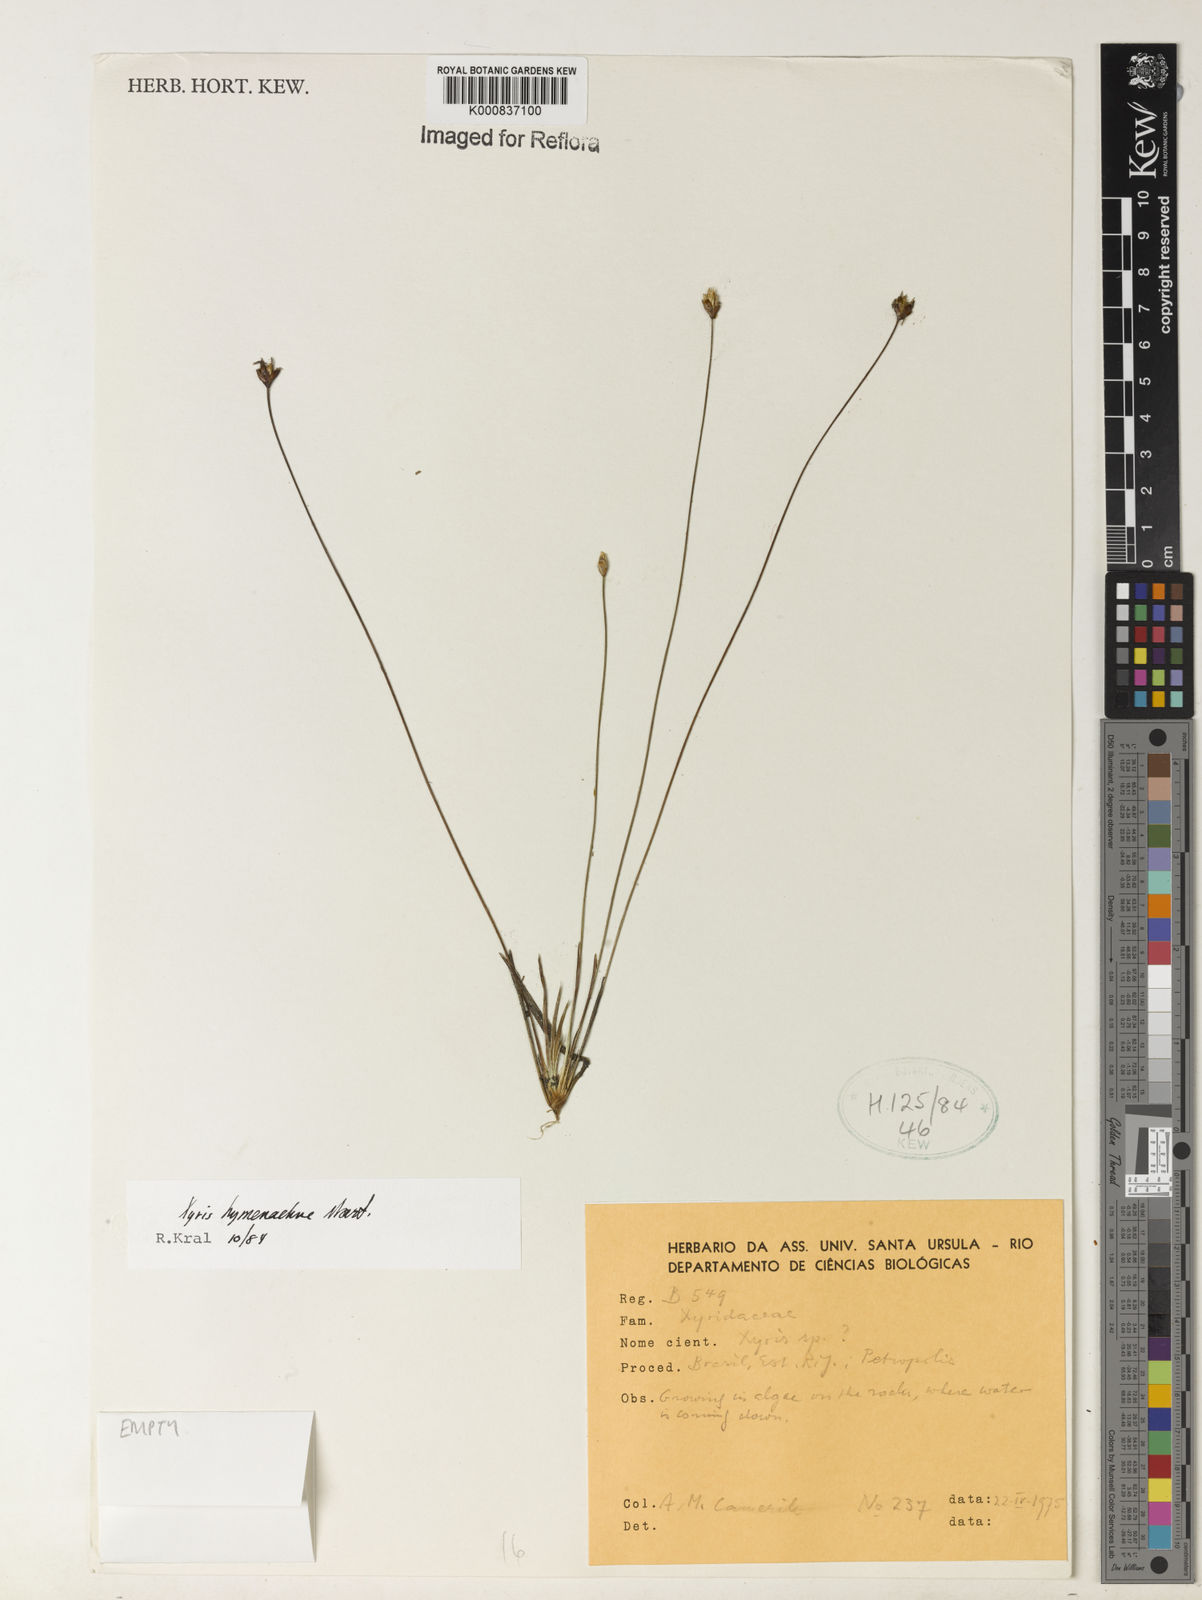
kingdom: Plantae
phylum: Tracheophyta
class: Liliopsida
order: Poales
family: Xyridaceae
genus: Xyris
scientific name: Xyris hymenachne
